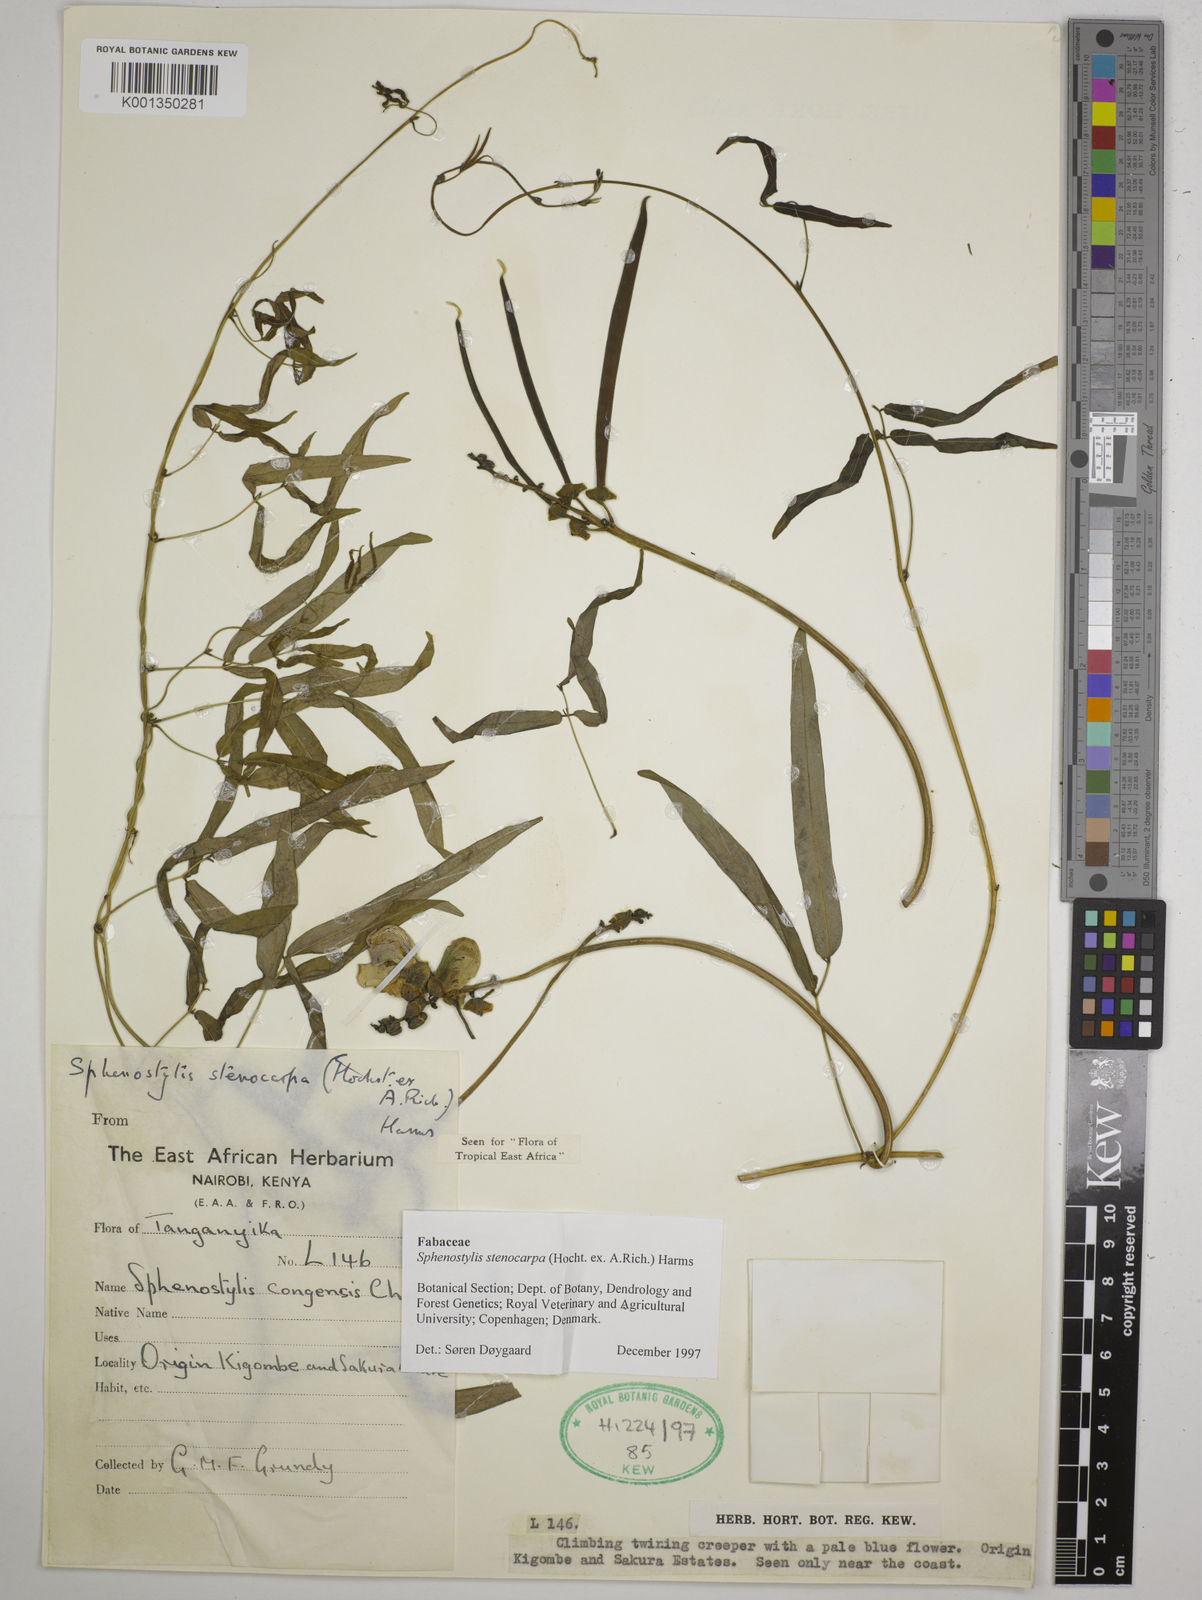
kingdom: Plantae
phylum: Tracheophyta
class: Magnoliopsida
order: Fabales
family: Fabaceae
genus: Sphenostylis
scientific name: Sphenostylis stenocarpa
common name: Yam-pea
